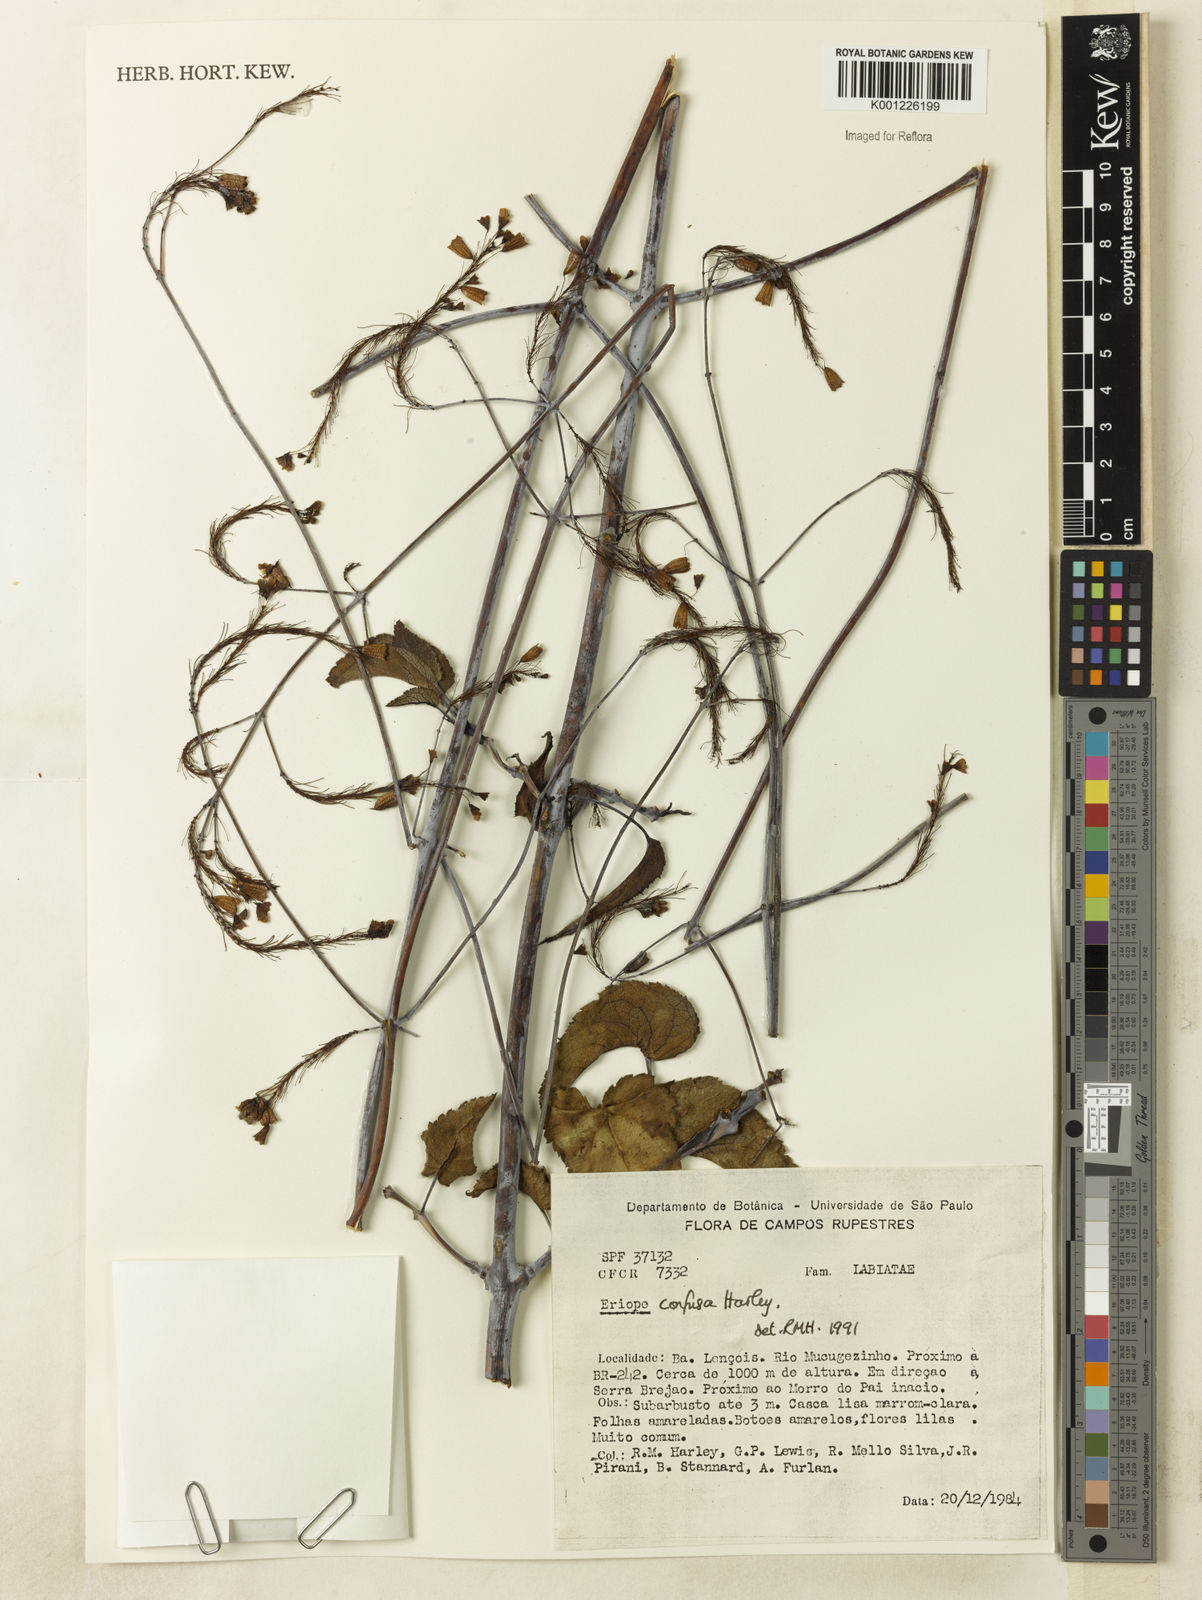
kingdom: Plantae
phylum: Tracheophyta
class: Magnoliopsida
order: Lamiales
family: Lamiaceae
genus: Eriope
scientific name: Eriope confusa
